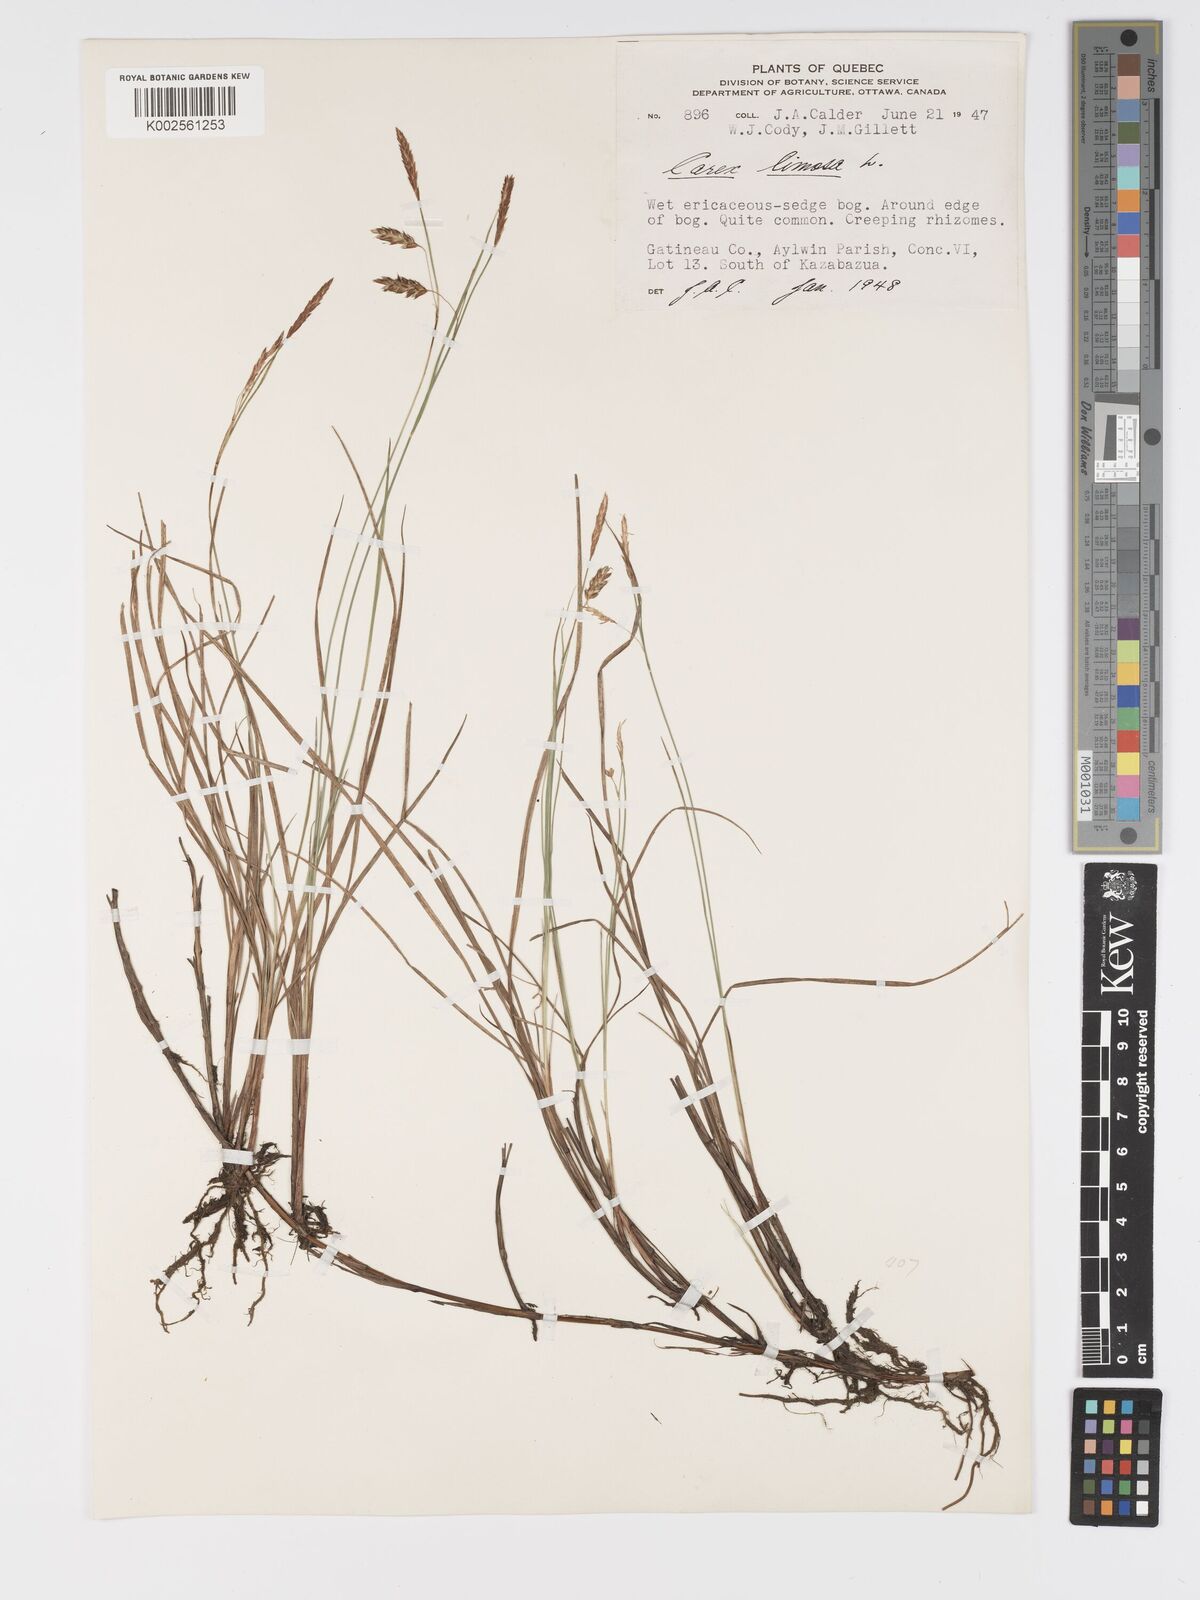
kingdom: Plantae
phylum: Tracheophyta
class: Liliopsida
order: Poales
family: Cyperaceae
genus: Carex
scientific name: Carex limosa
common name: Bog sedge
